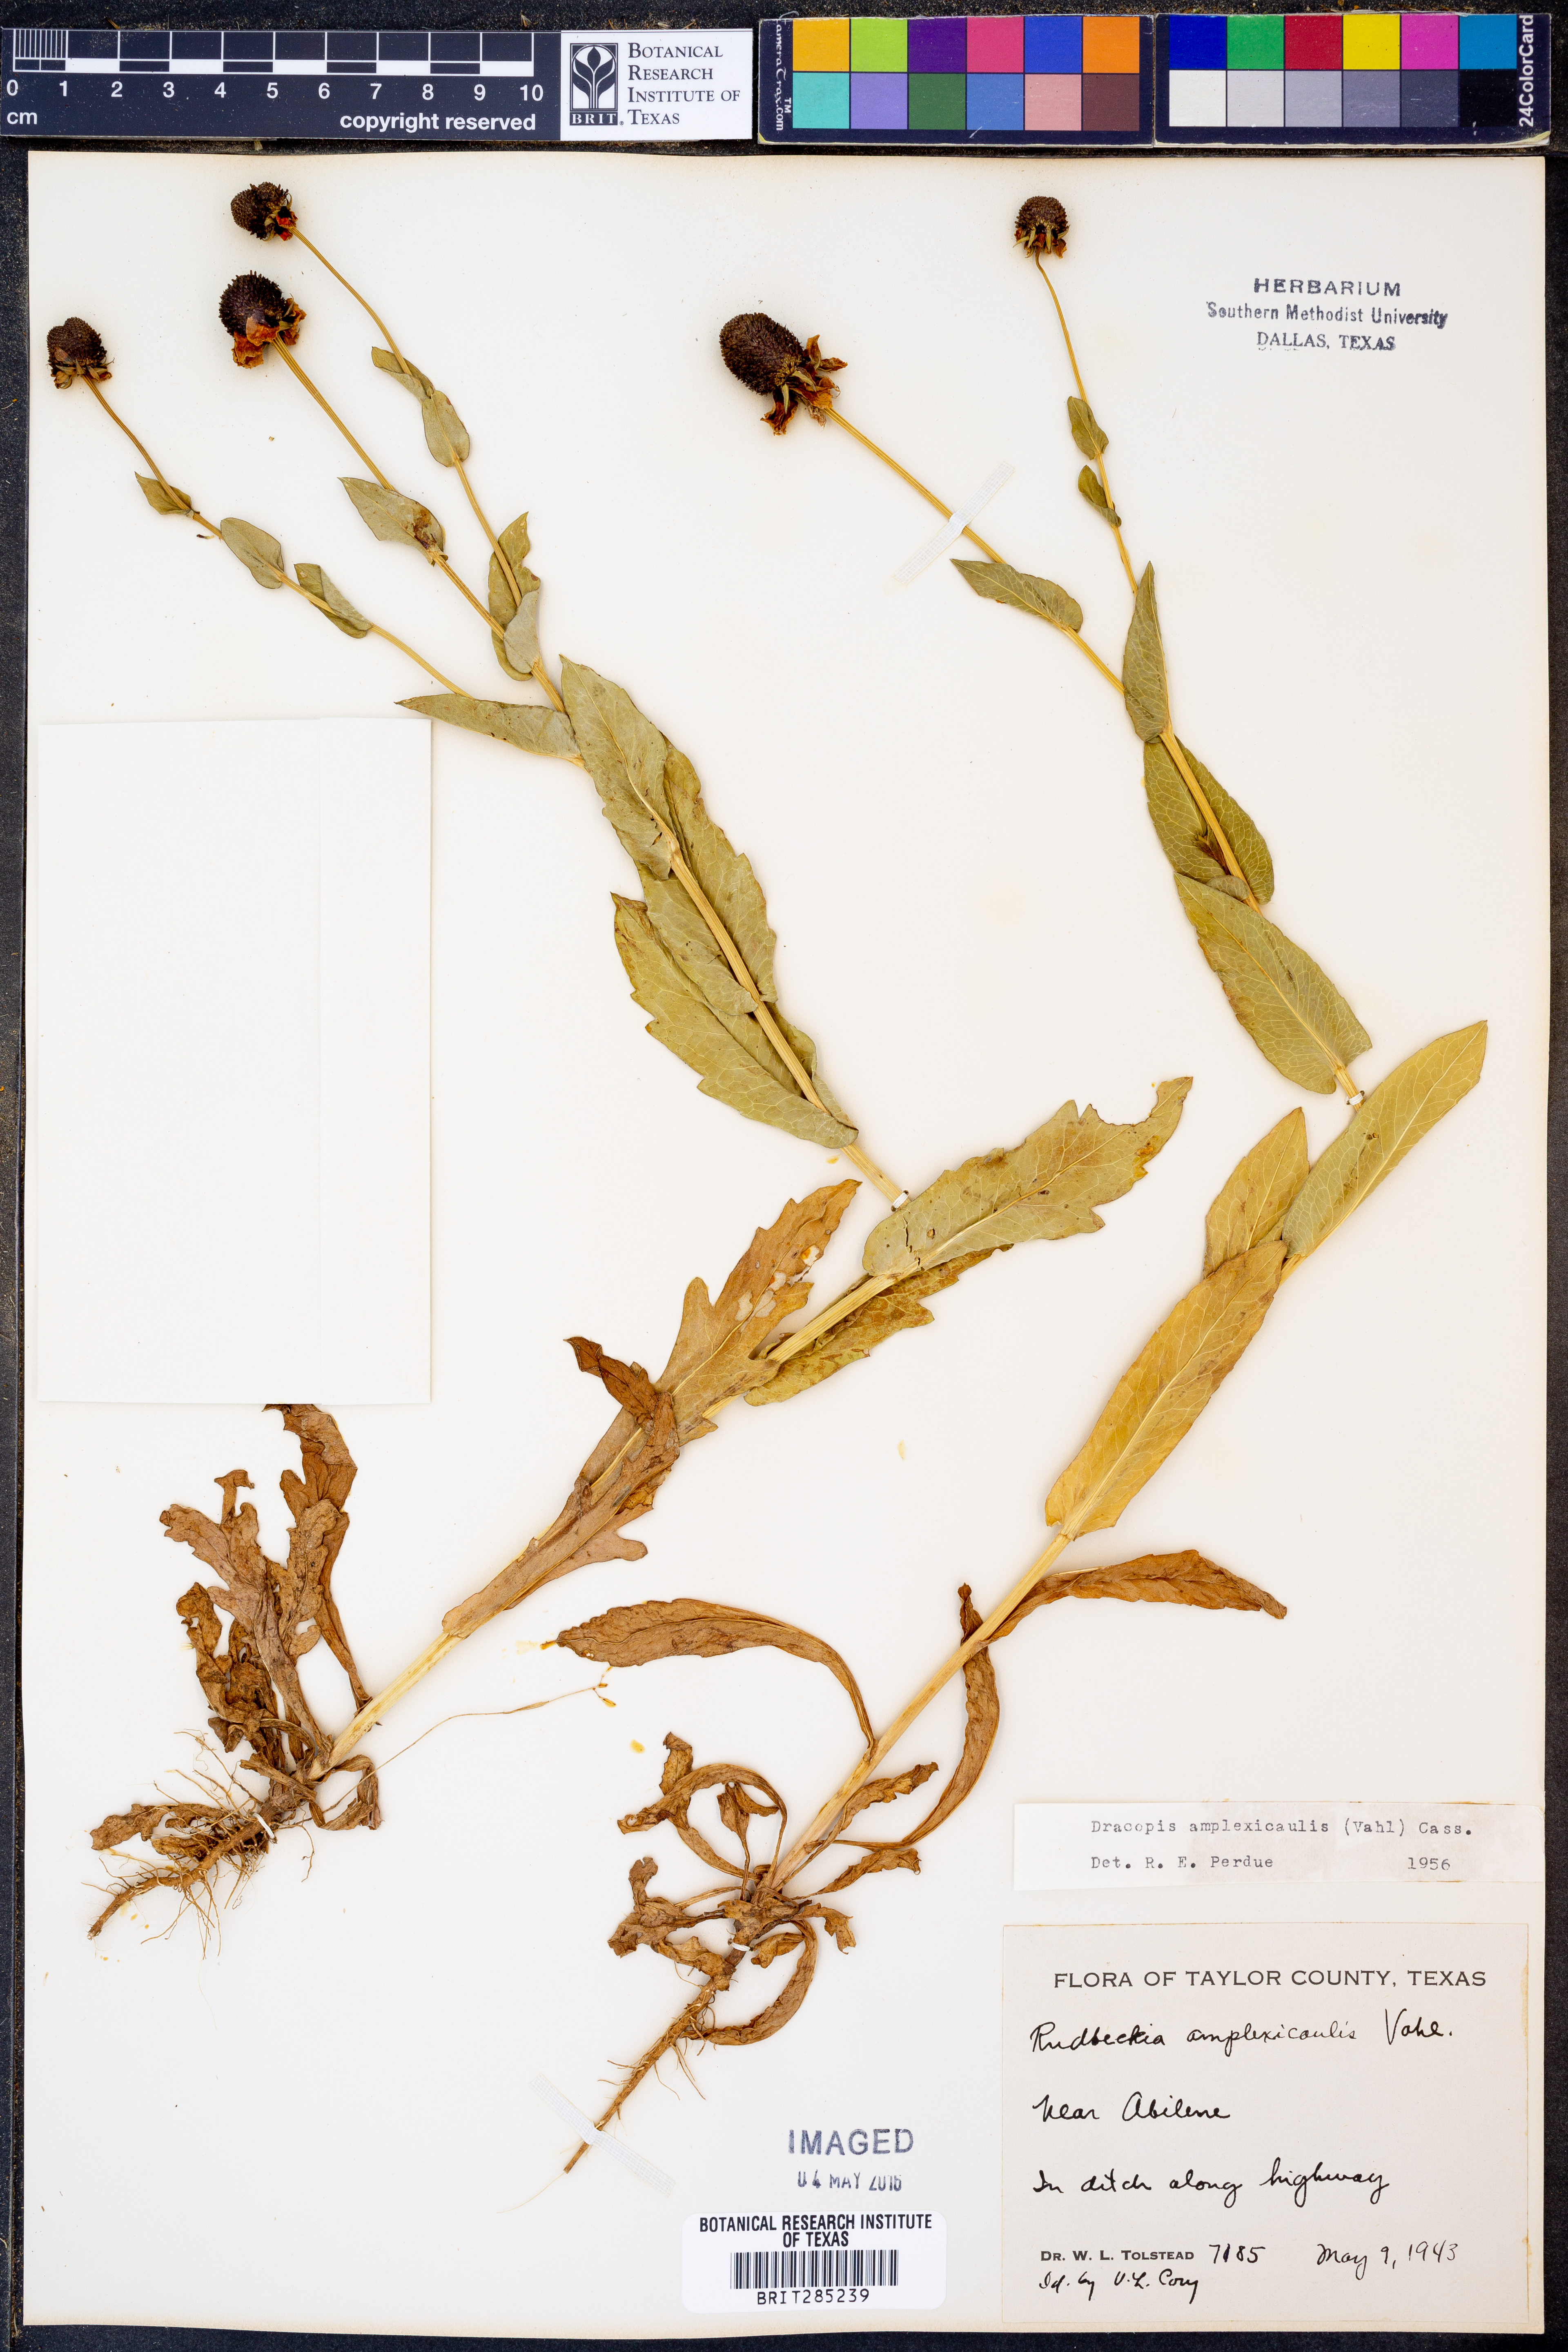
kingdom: Plantae
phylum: Tracheophyta
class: Magnoliopsida
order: Asterales
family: Asteraceae
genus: Rudbeckia
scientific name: Rudbeckia amplexicaulis
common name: Clasping-leaf coneflower
